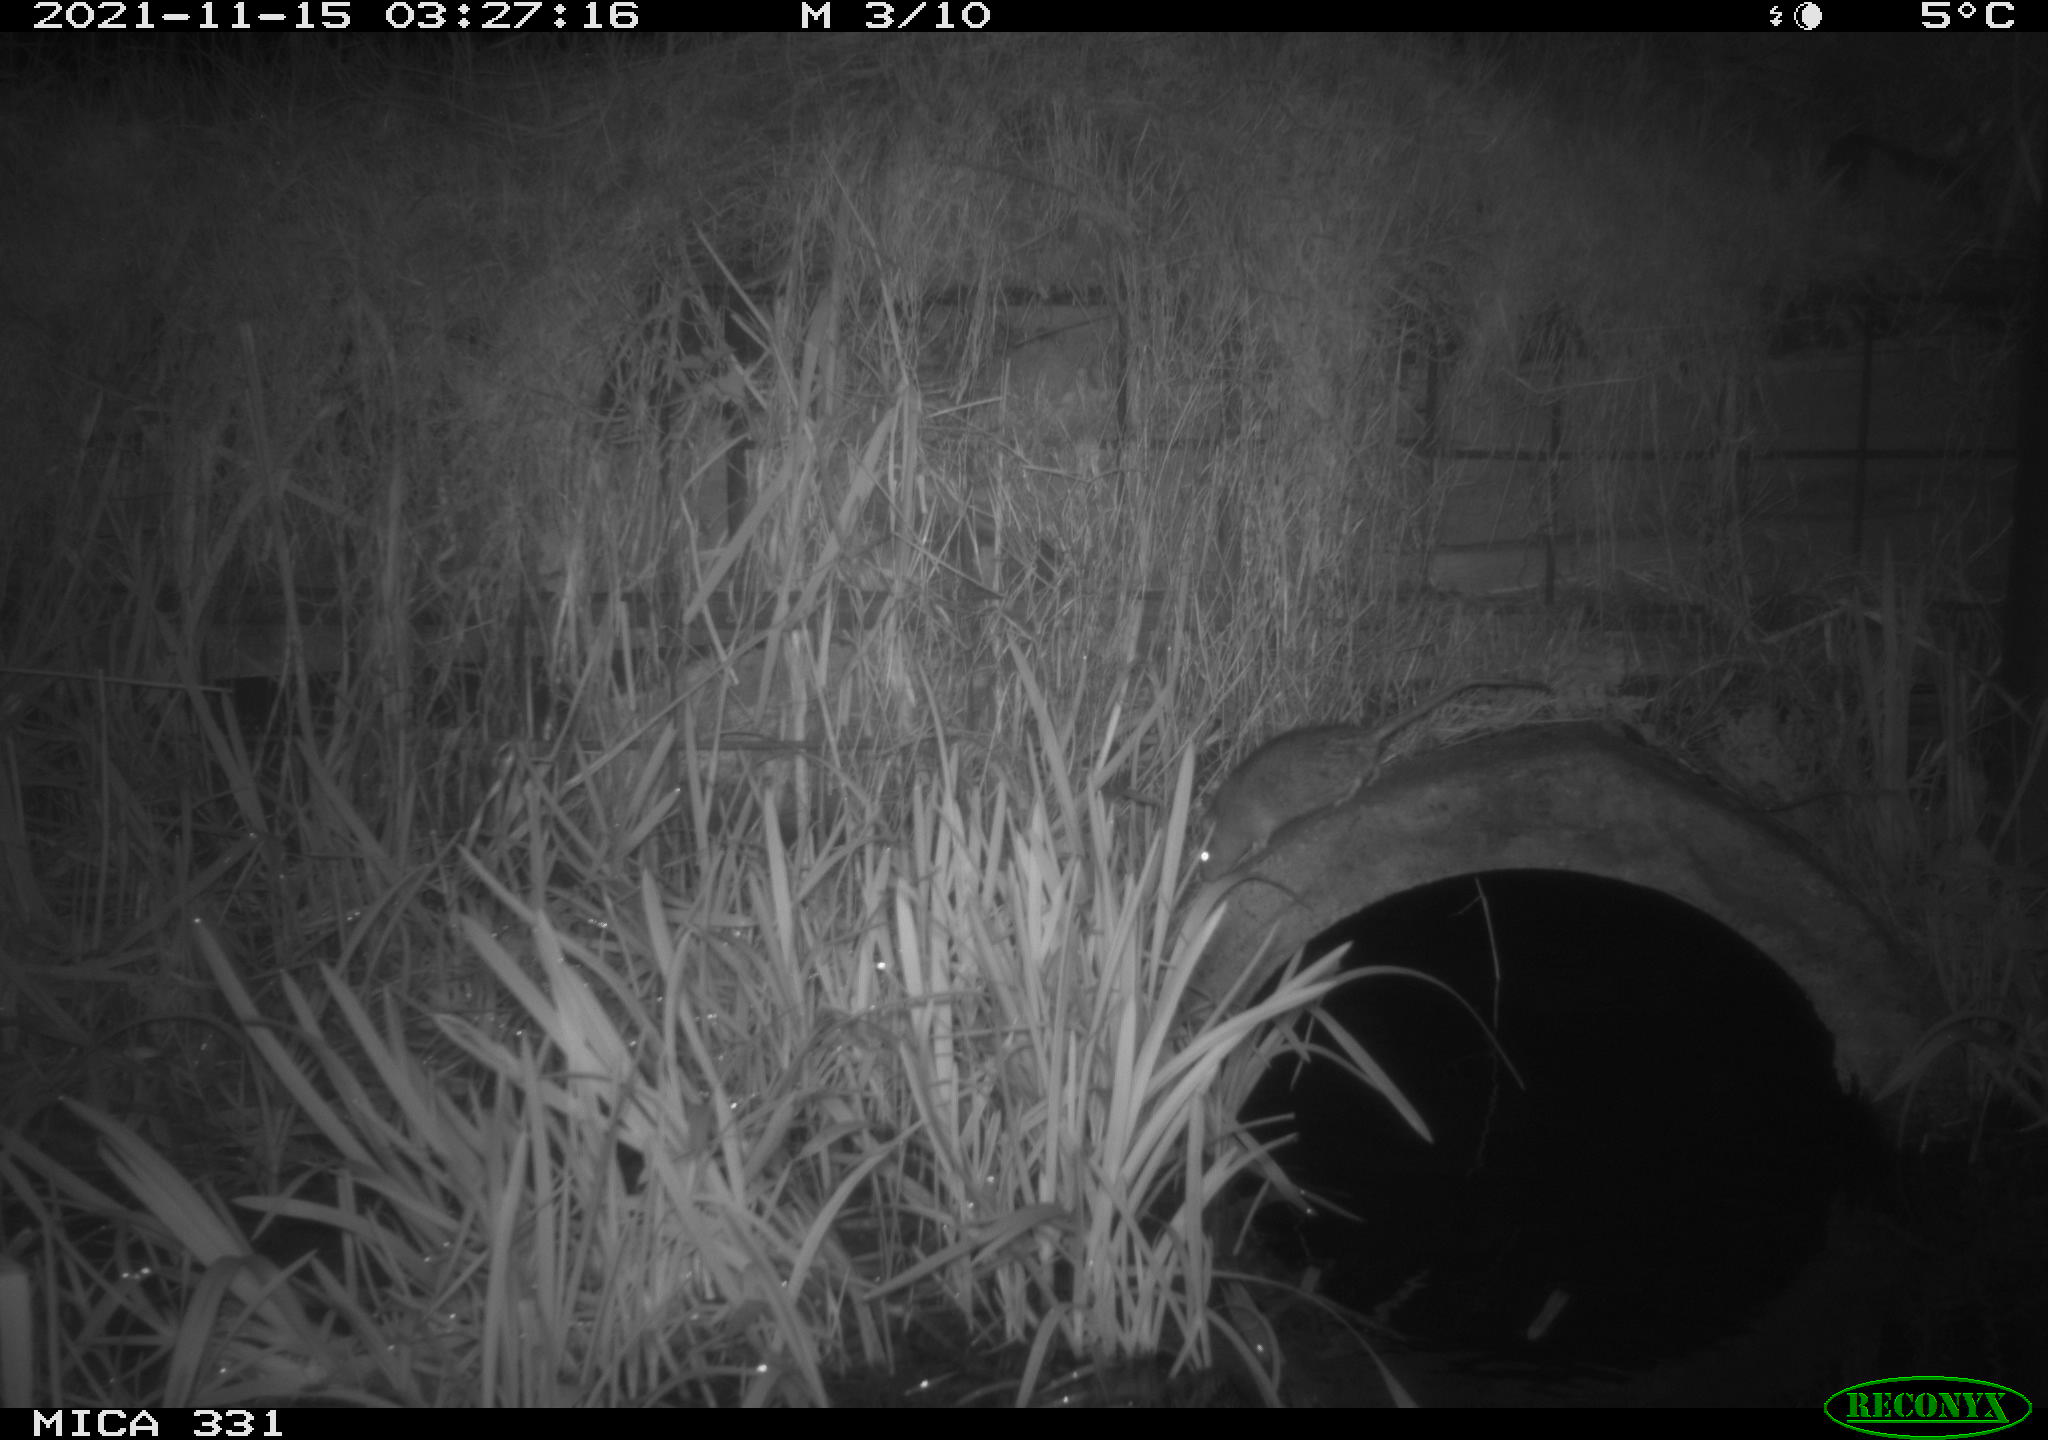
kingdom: Animalia
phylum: Chordata
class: Mammalia
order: Rodentia
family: Muridae
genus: Rattus
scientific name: Rattus norvegicus
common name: Brown rat
